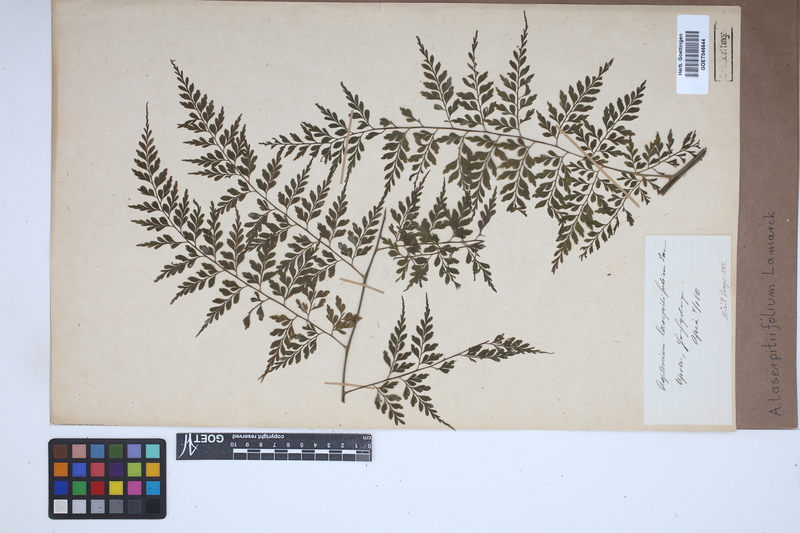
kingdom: Plantae
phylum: Tracheophyta
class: Polypodiopsida
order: Polypodiales
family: Aspleniaceae
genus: Asplenium
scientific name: Asplenium laserpitiifolium
